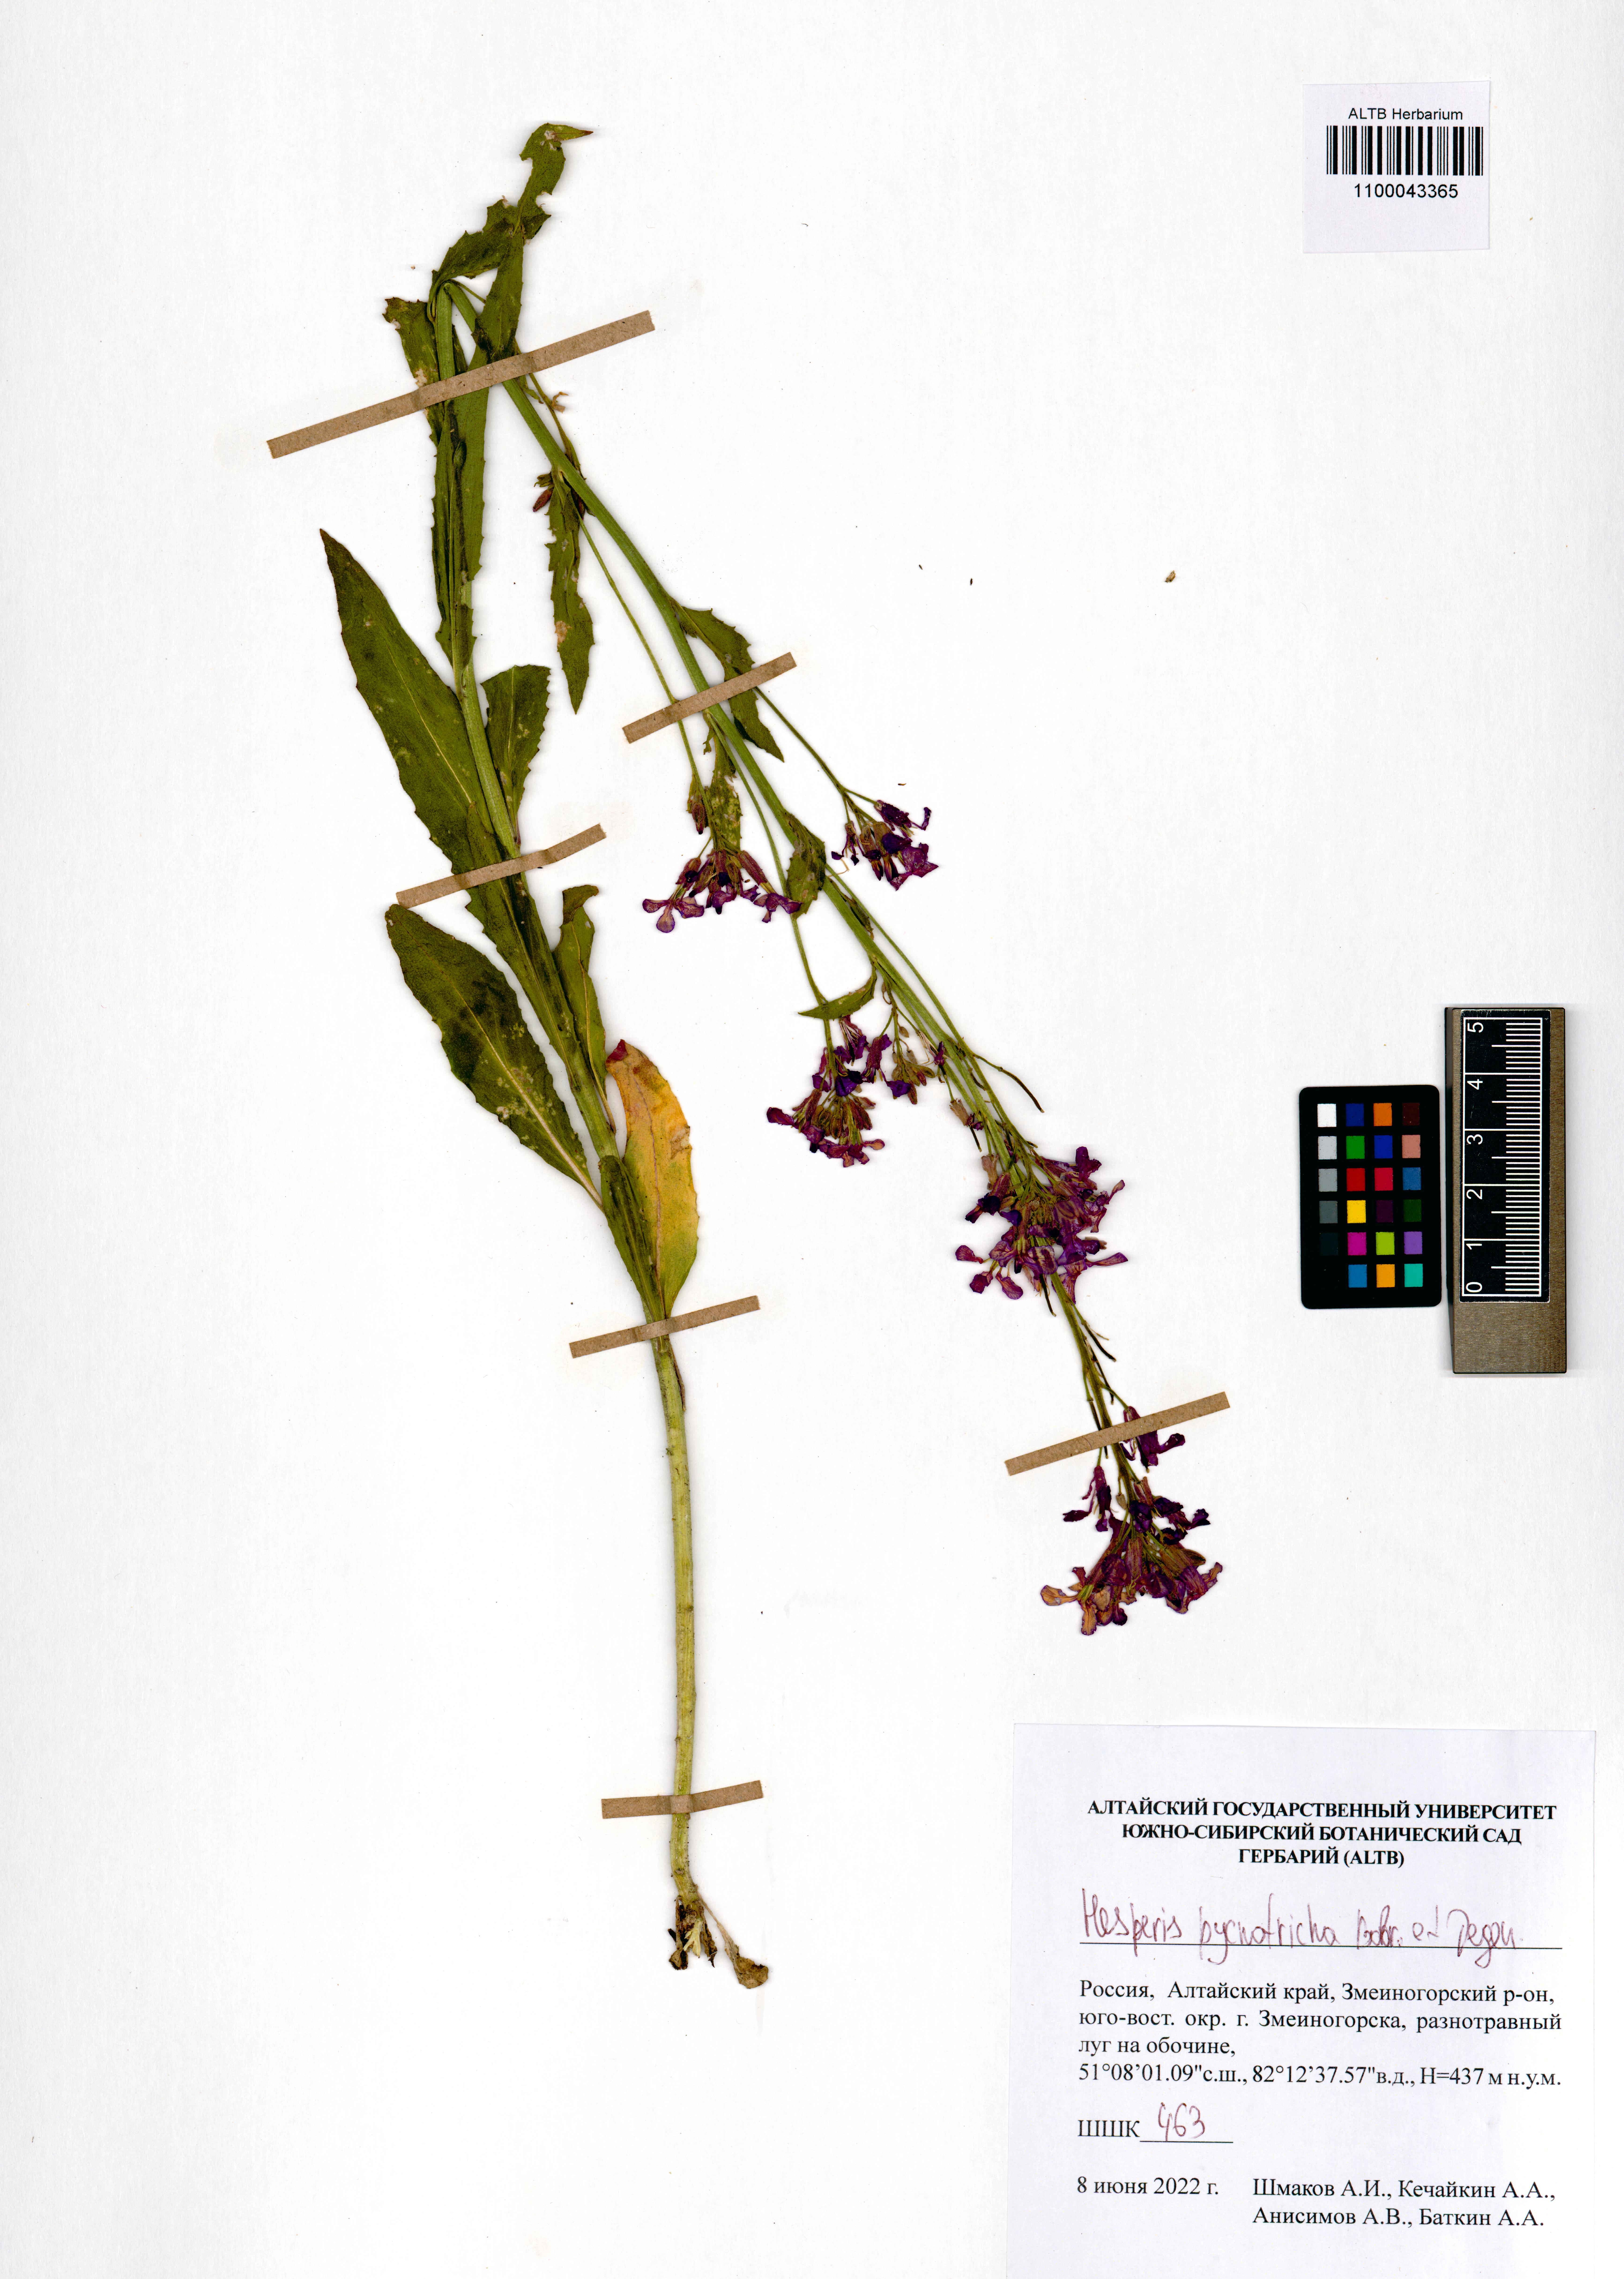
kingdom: Plantae
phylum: Tracheophyta
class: Magnoliopsida
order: Brassicales
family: Brassicaceae
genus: Hesperis
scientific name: Hesperis pycnotricha
